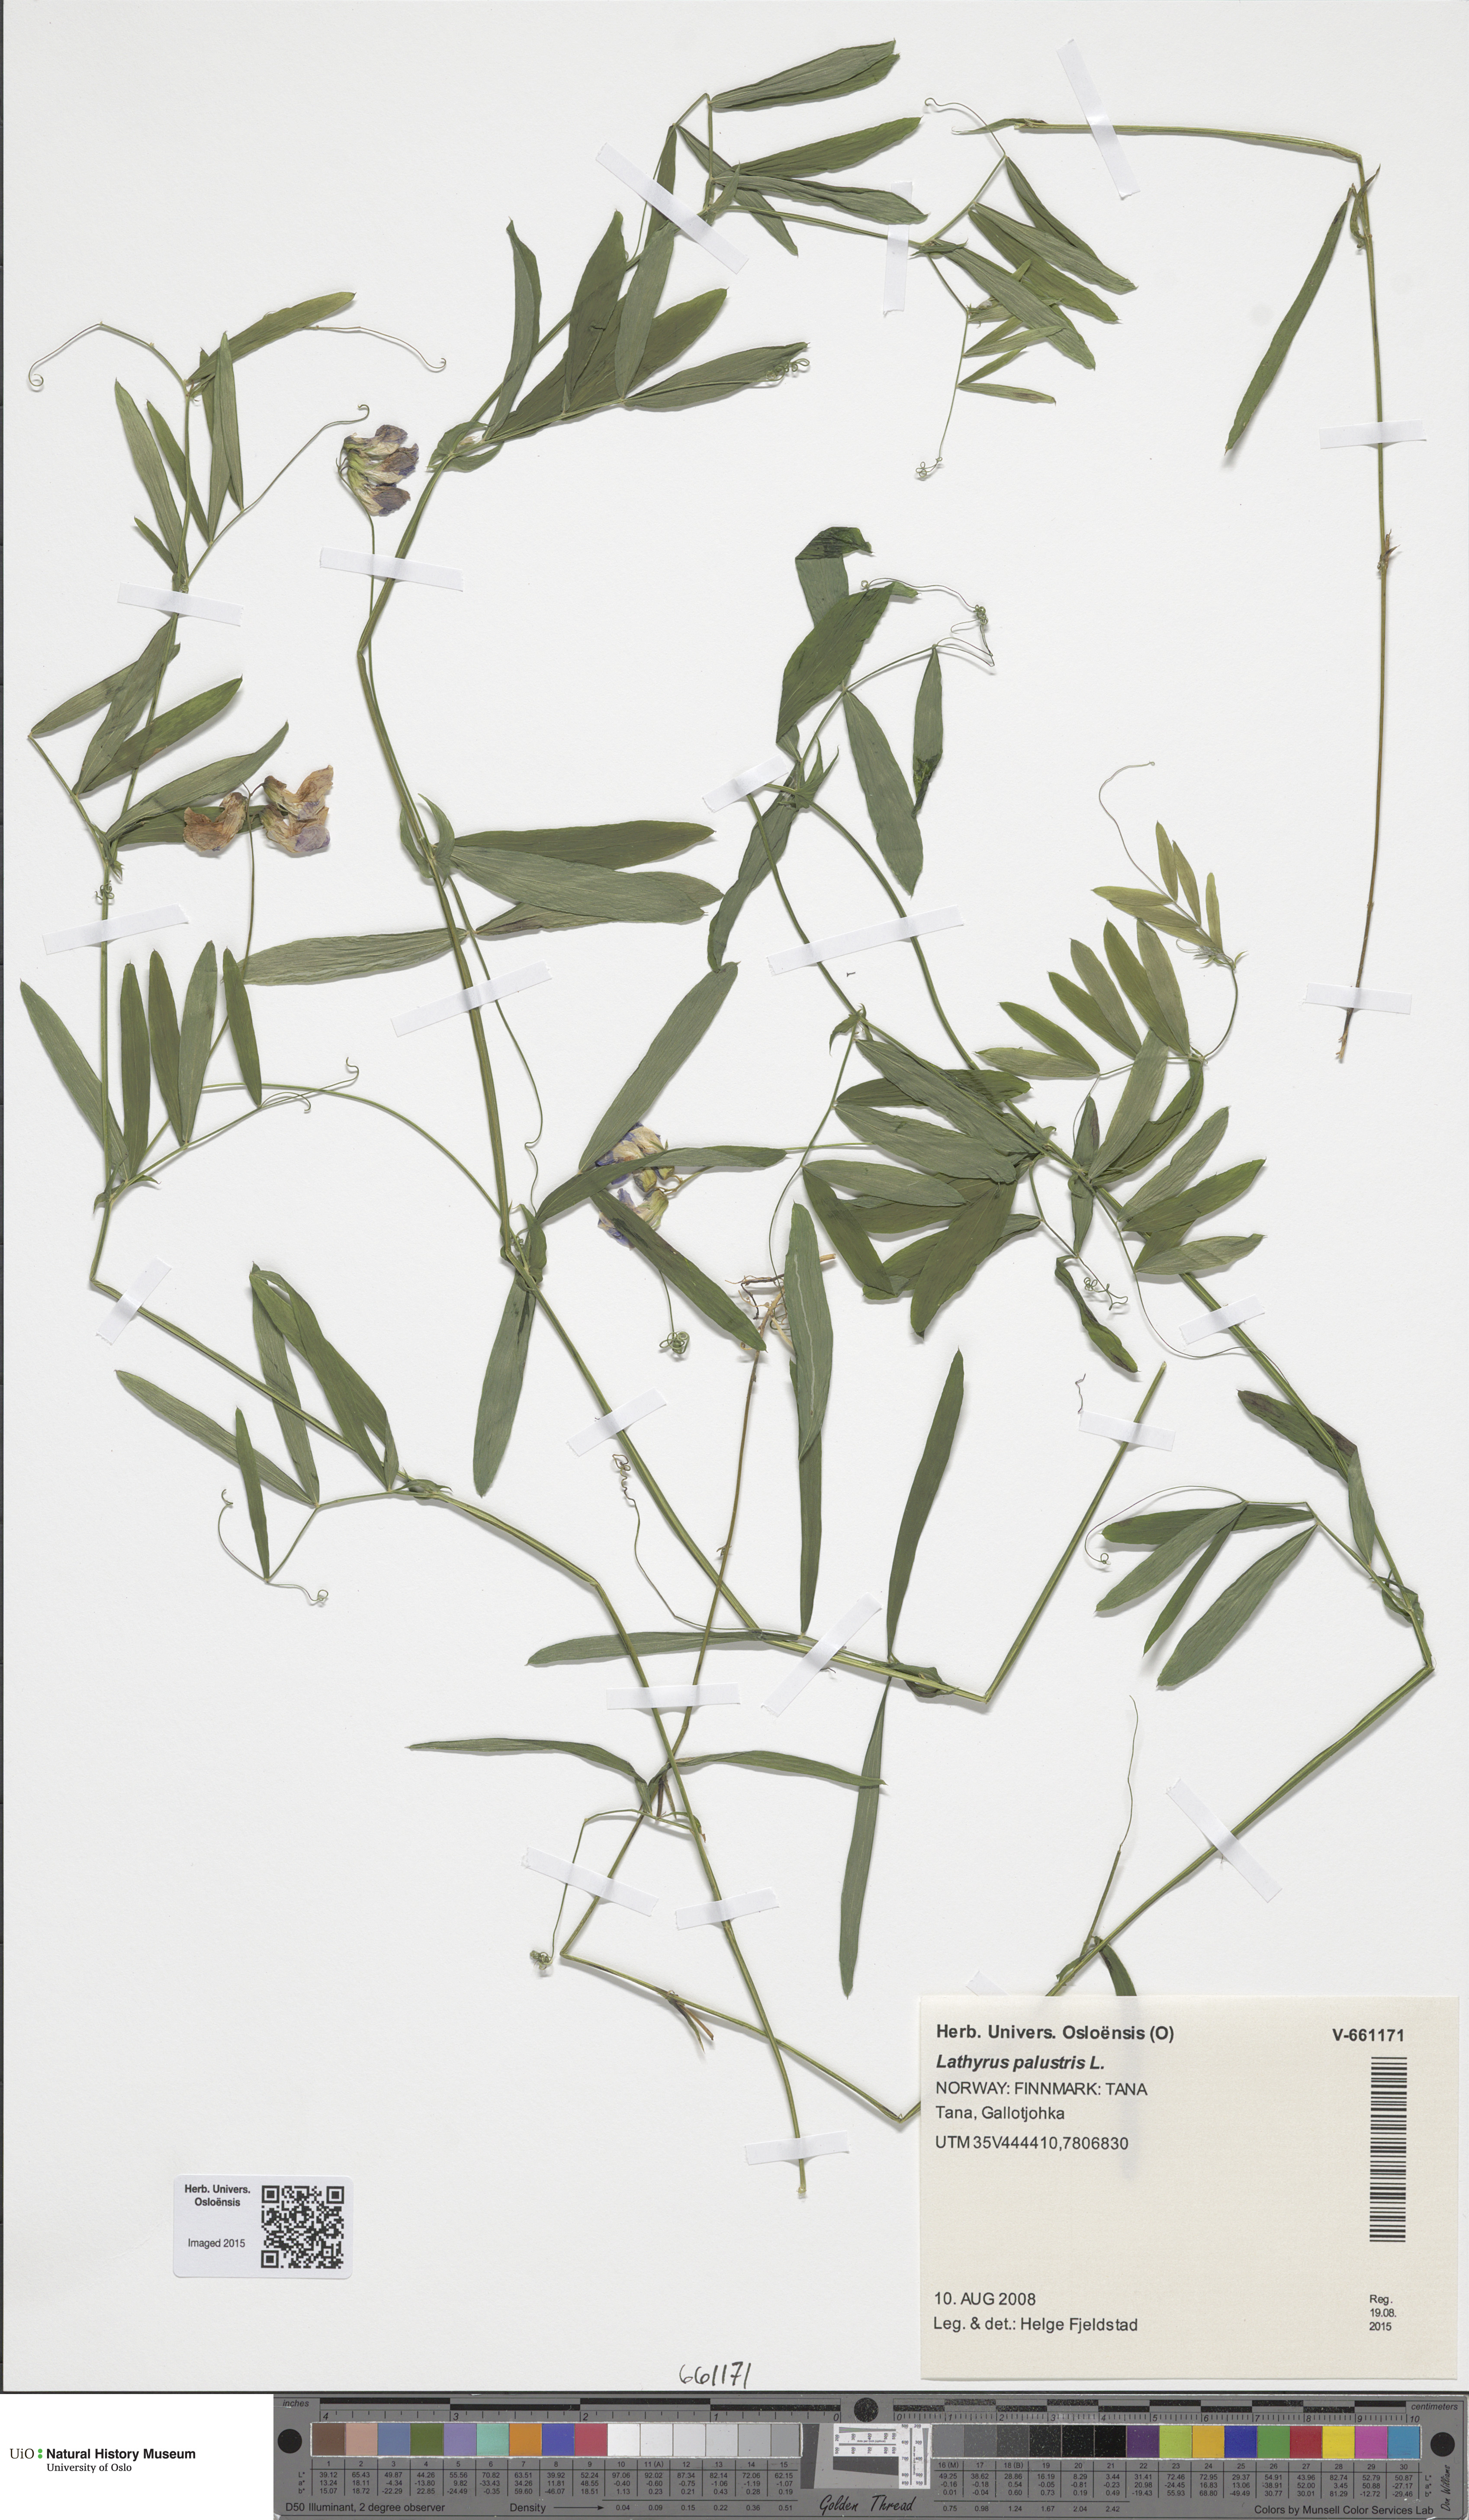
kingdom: Plantae
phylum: Tracheophyta
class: Magnoliopsida
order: Fabales
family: Fabaceae
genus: Lathyrus
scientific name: Lathyrus palustris
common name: Marsh pea
